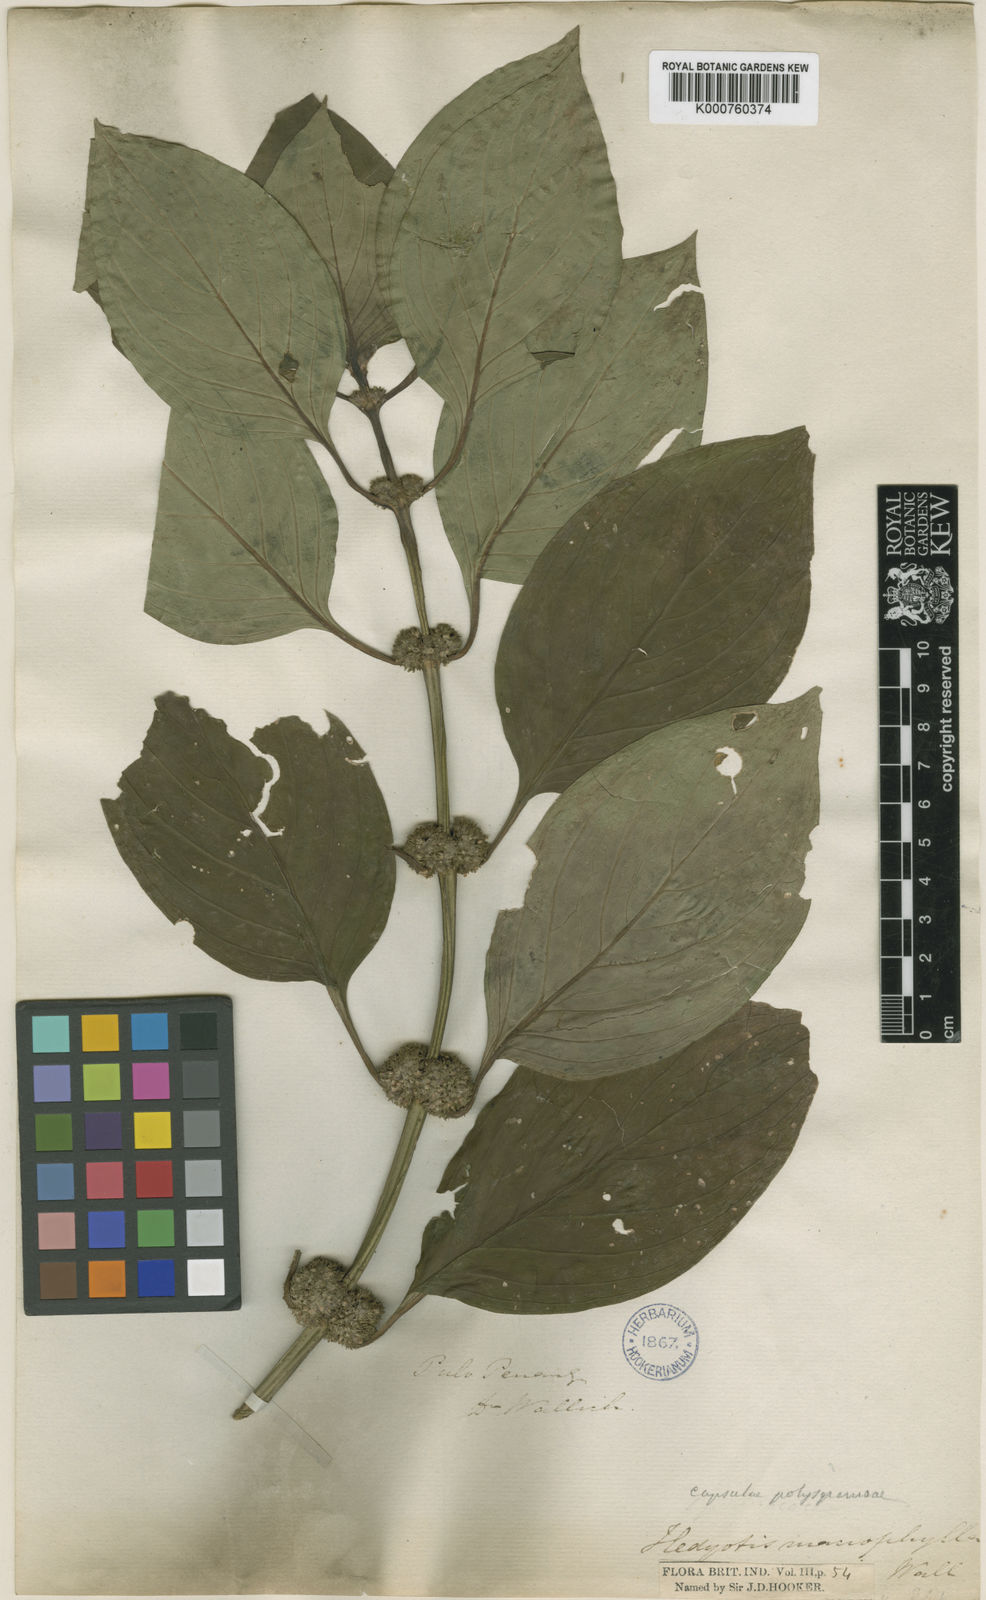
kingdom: Plantae
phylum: Tracheophyta
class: Magnoliopsida
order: Gentianales
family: Rubiaceae
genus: Hedyotis
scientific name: Hedyotis
